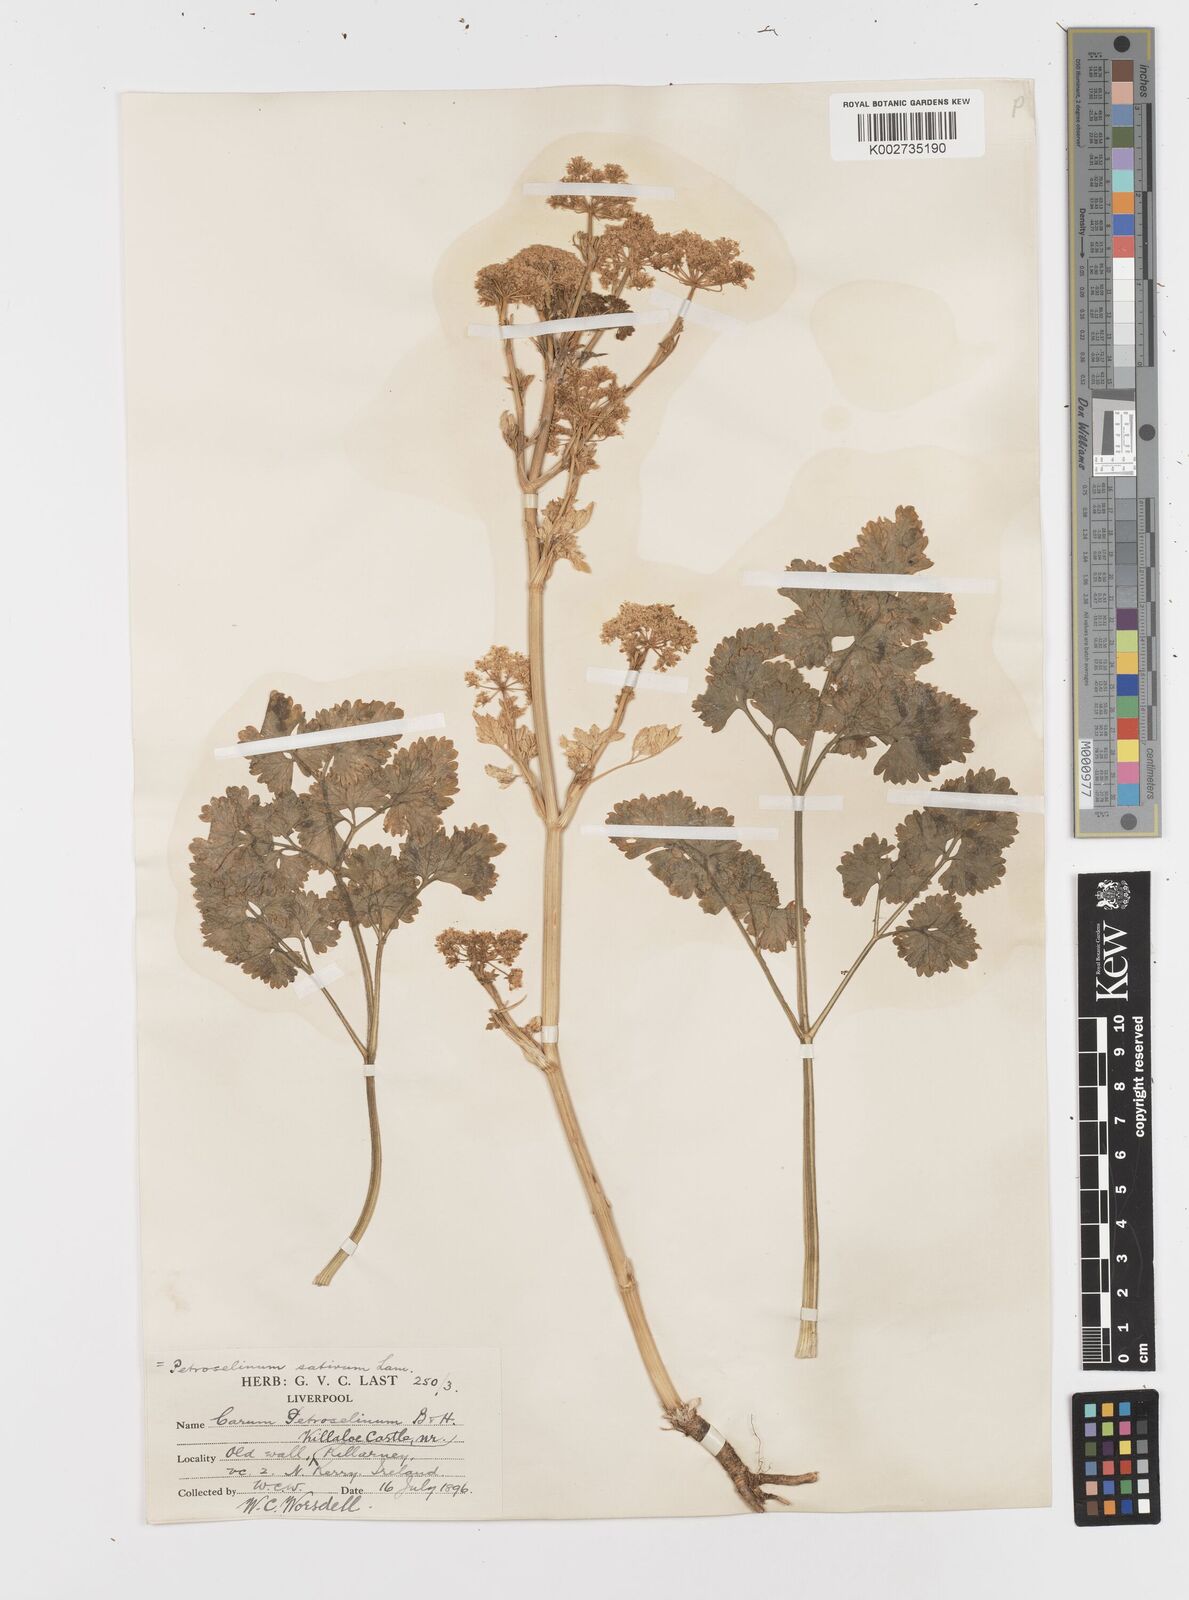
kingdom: Plantae
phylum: Tracheophyta
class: Magnoliopsida
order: Apiales
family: Apiaceae
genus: Petroselinum
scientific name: Petroselinum crispum
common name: Parsley
